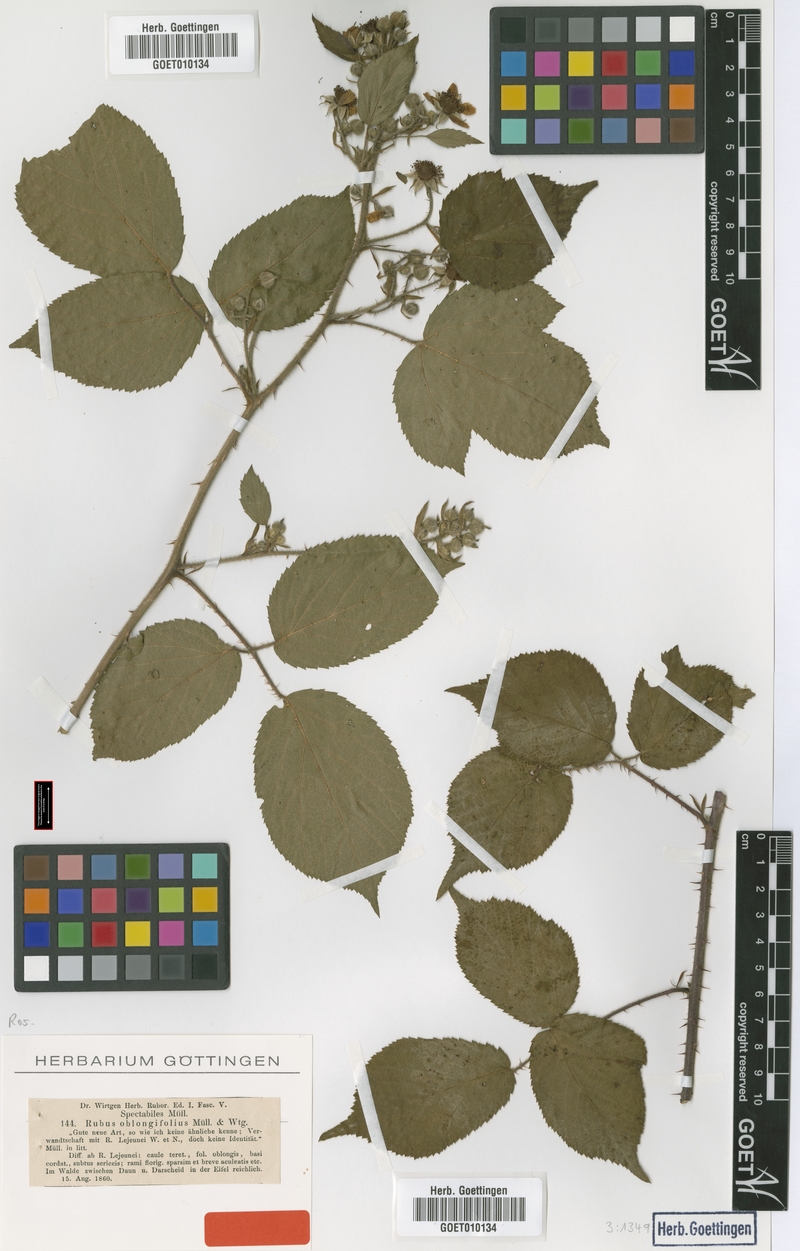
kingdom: Plantae
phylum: Tracheophyta
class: Magnoliopsida
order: Rosales
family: Rosaceae
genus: Rubus
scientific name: Rubus oblongifolius
